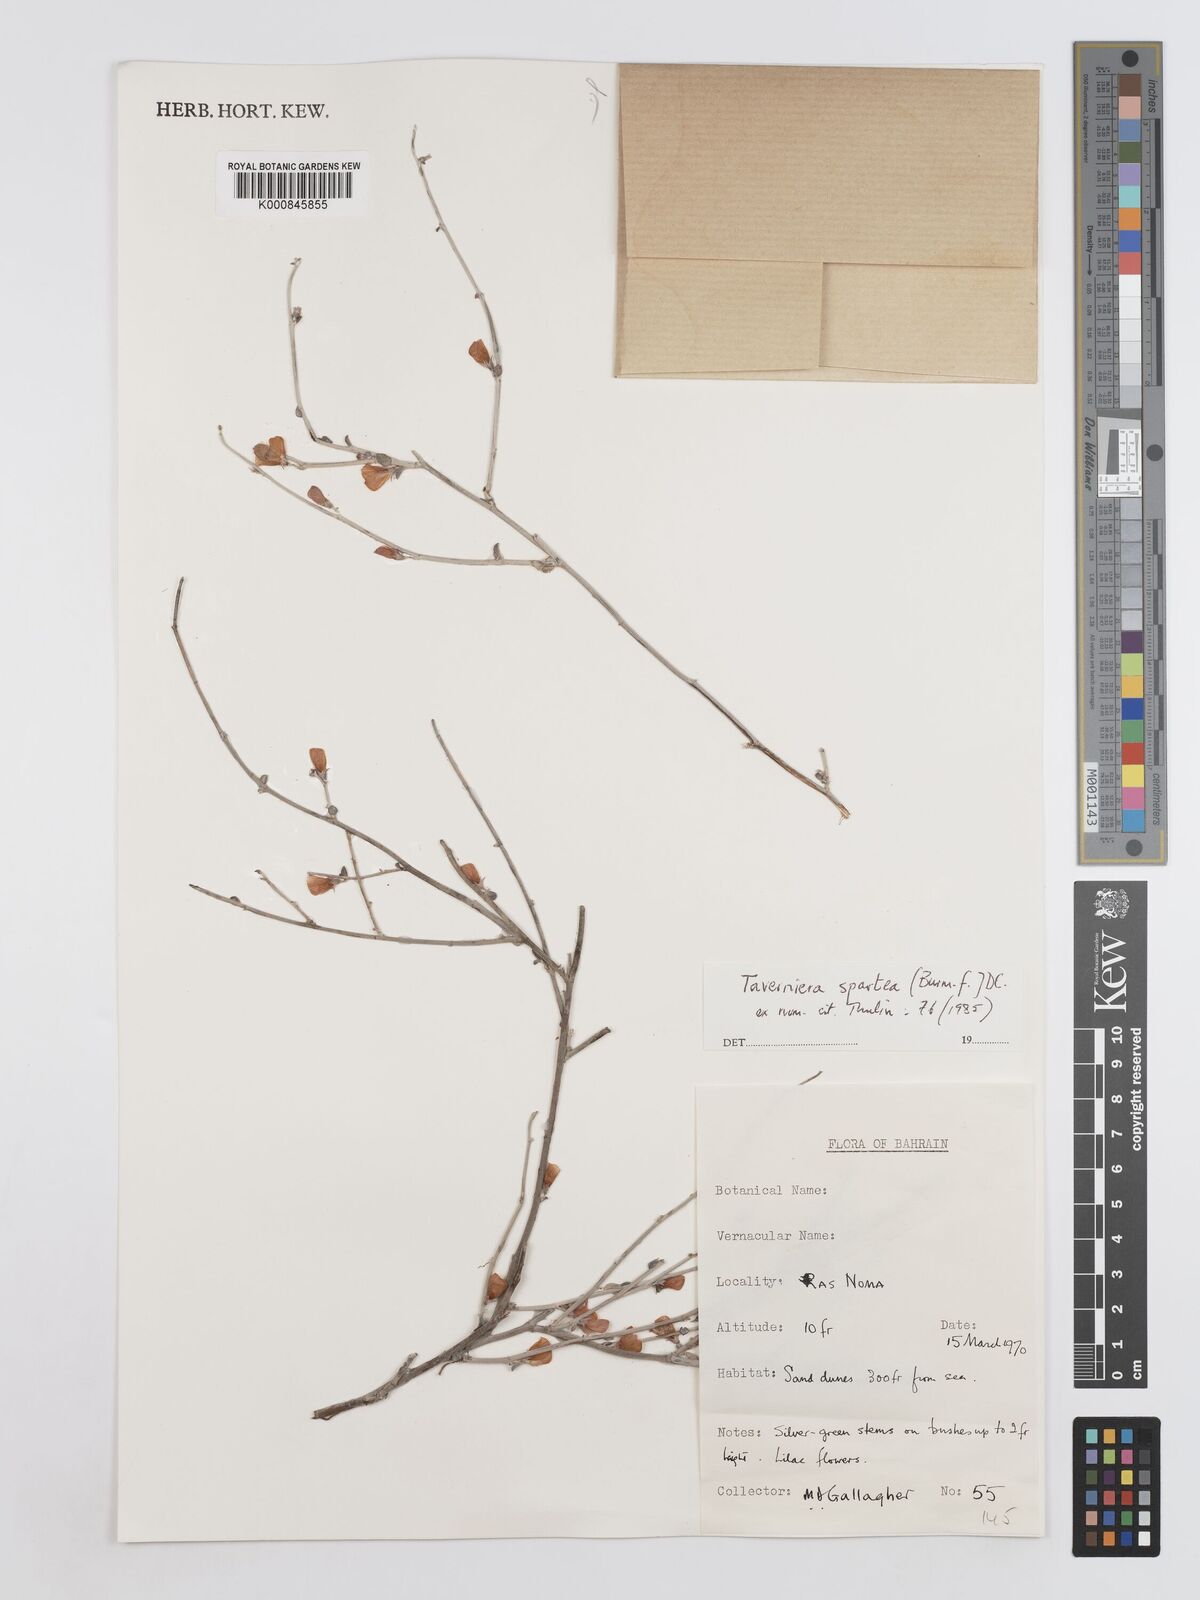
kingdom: Plantae
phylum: Tracheophyta
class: Magnoliopsida
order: Fabales
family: Fabaceae
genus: Taverniera
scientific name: Taverniera spartea
